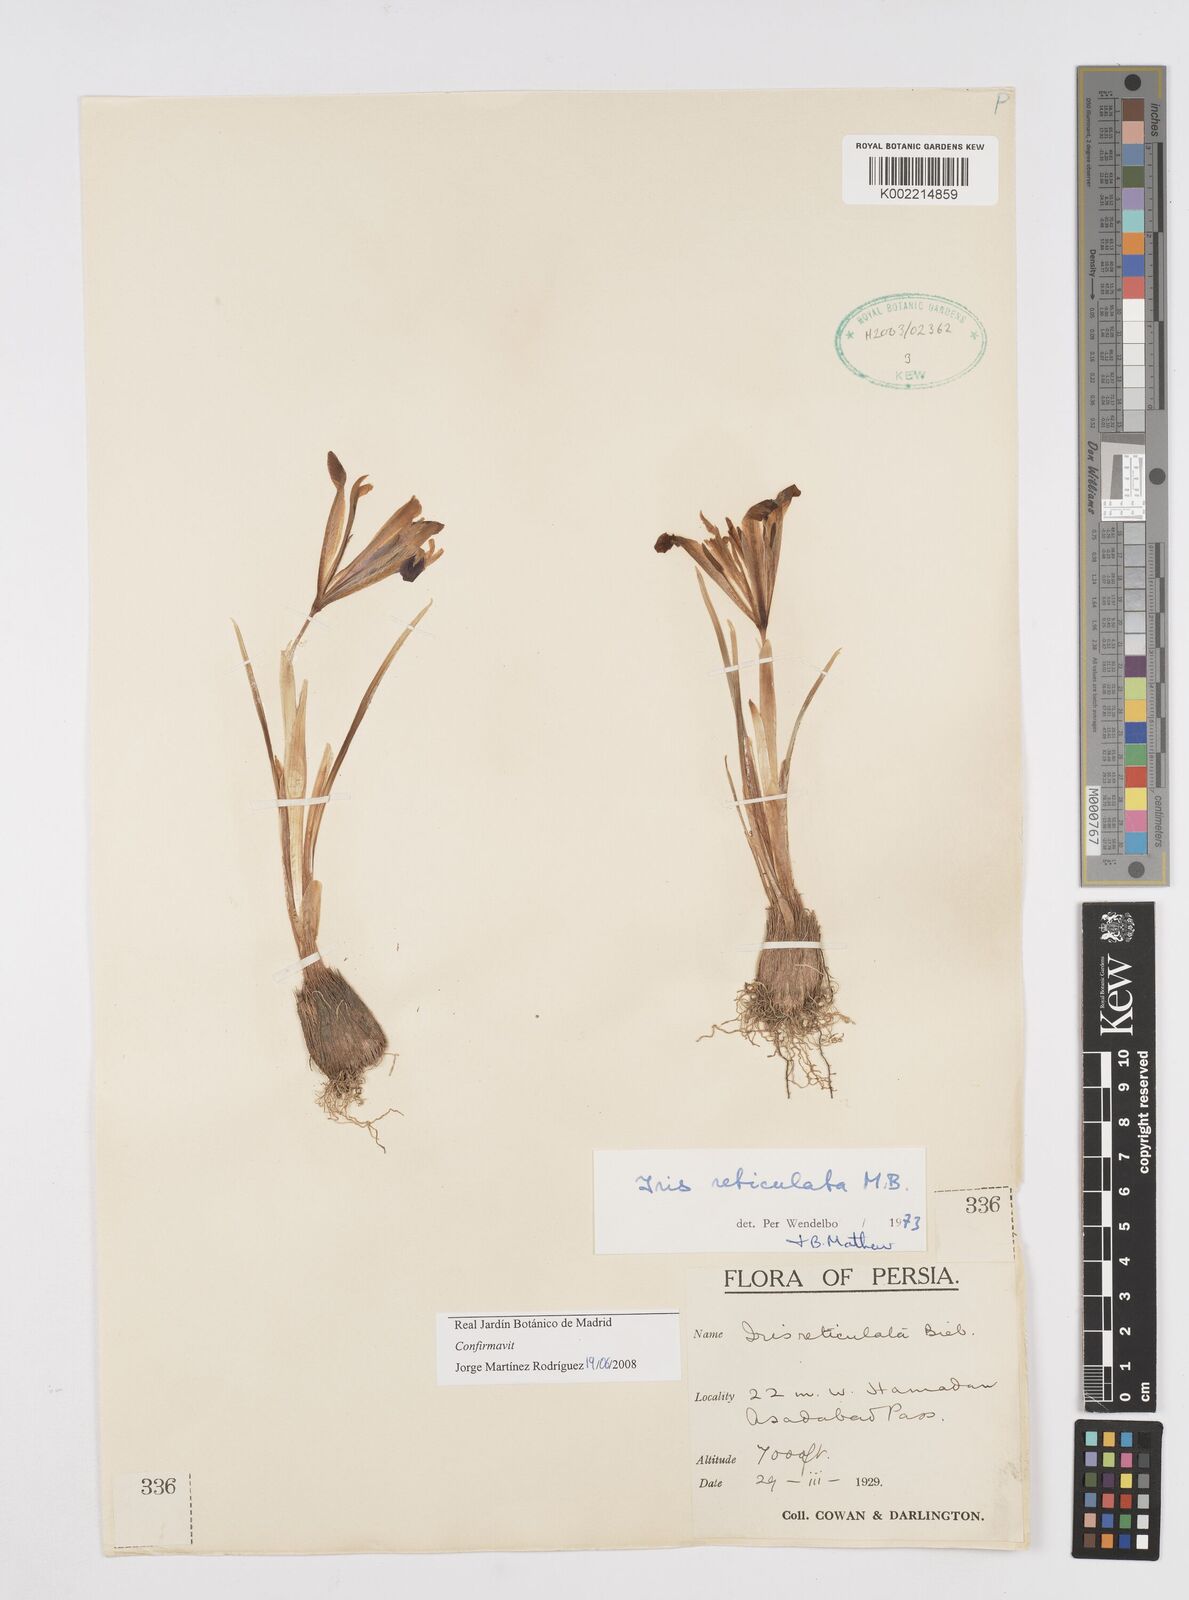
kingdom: Plantae
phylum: Tracheophyta
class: Liliopsida
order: Asparagales
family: Iridaceae
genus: Iris
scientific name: Iris reticulata
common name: Netted iris
